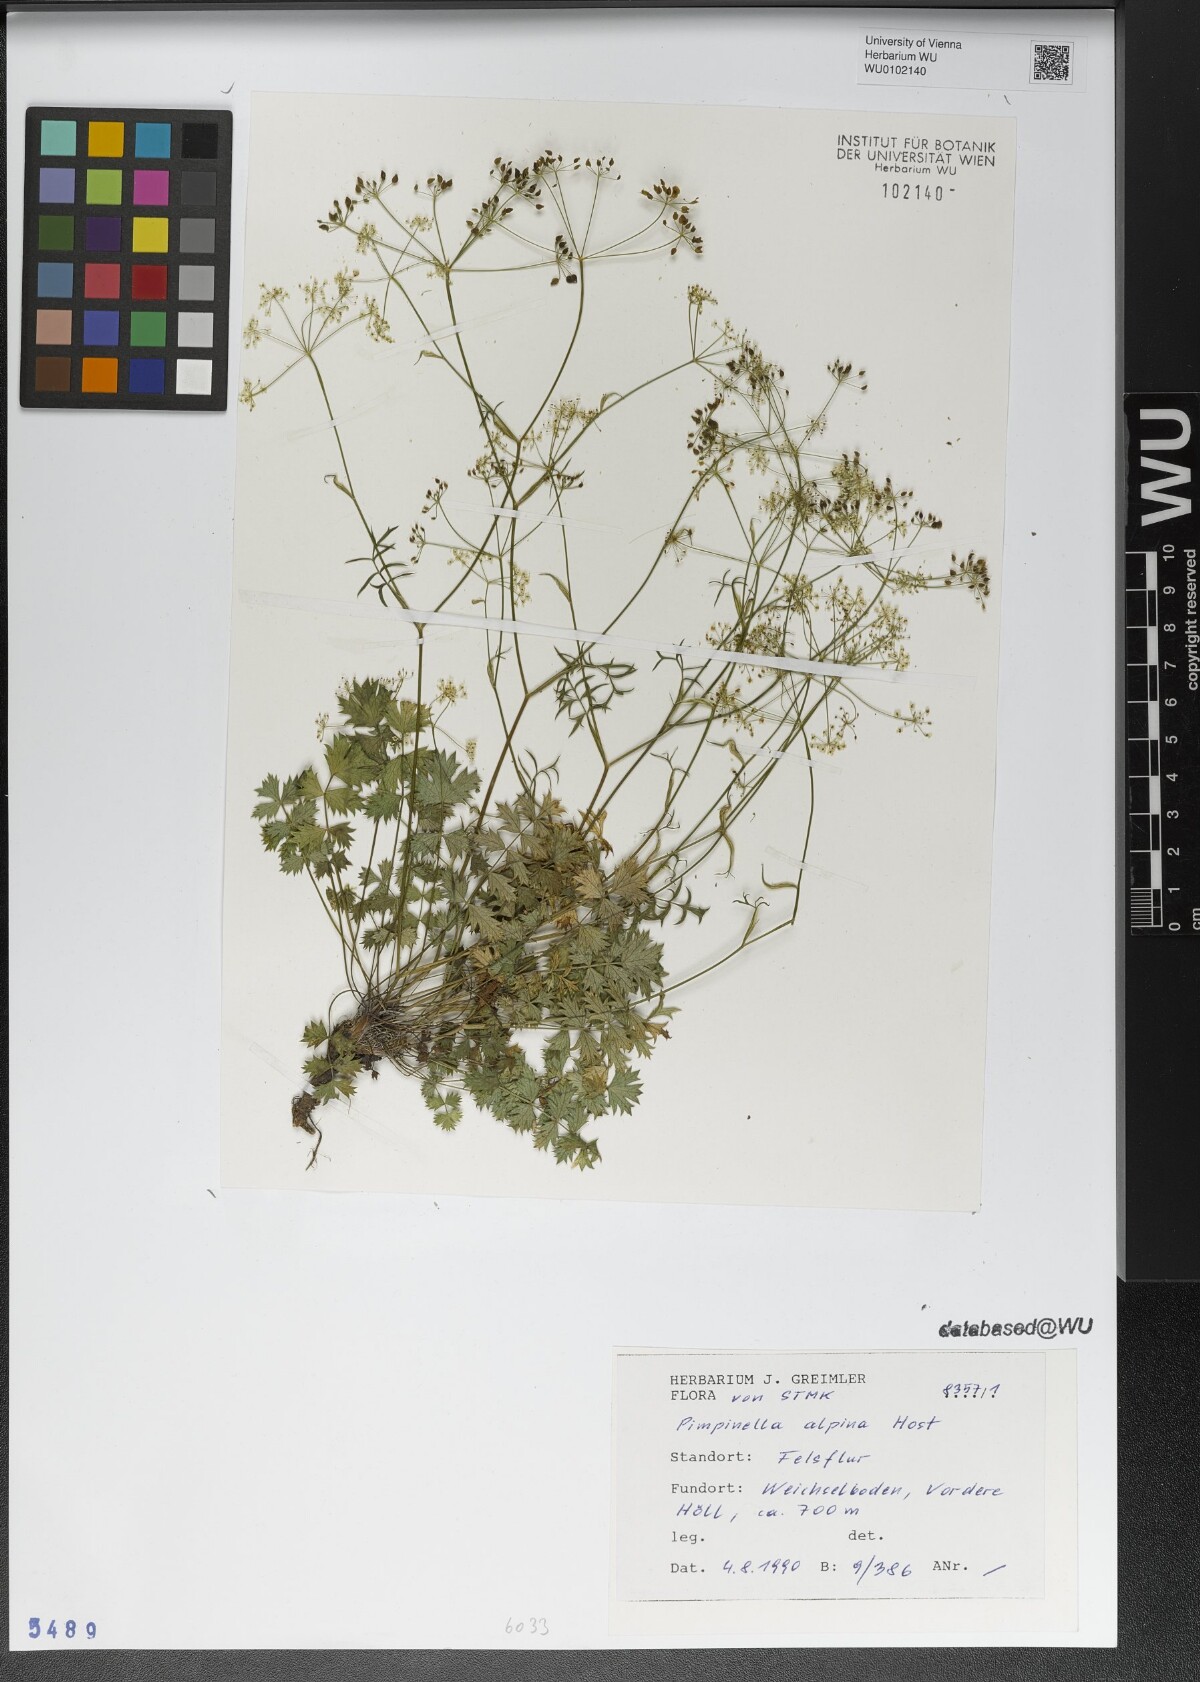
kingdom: Plantae
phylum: Tracheophyta
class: Magnoliopsida
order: Apiales
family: Apiaceae
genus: Pimpinella
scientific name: Pimpinella alpina
